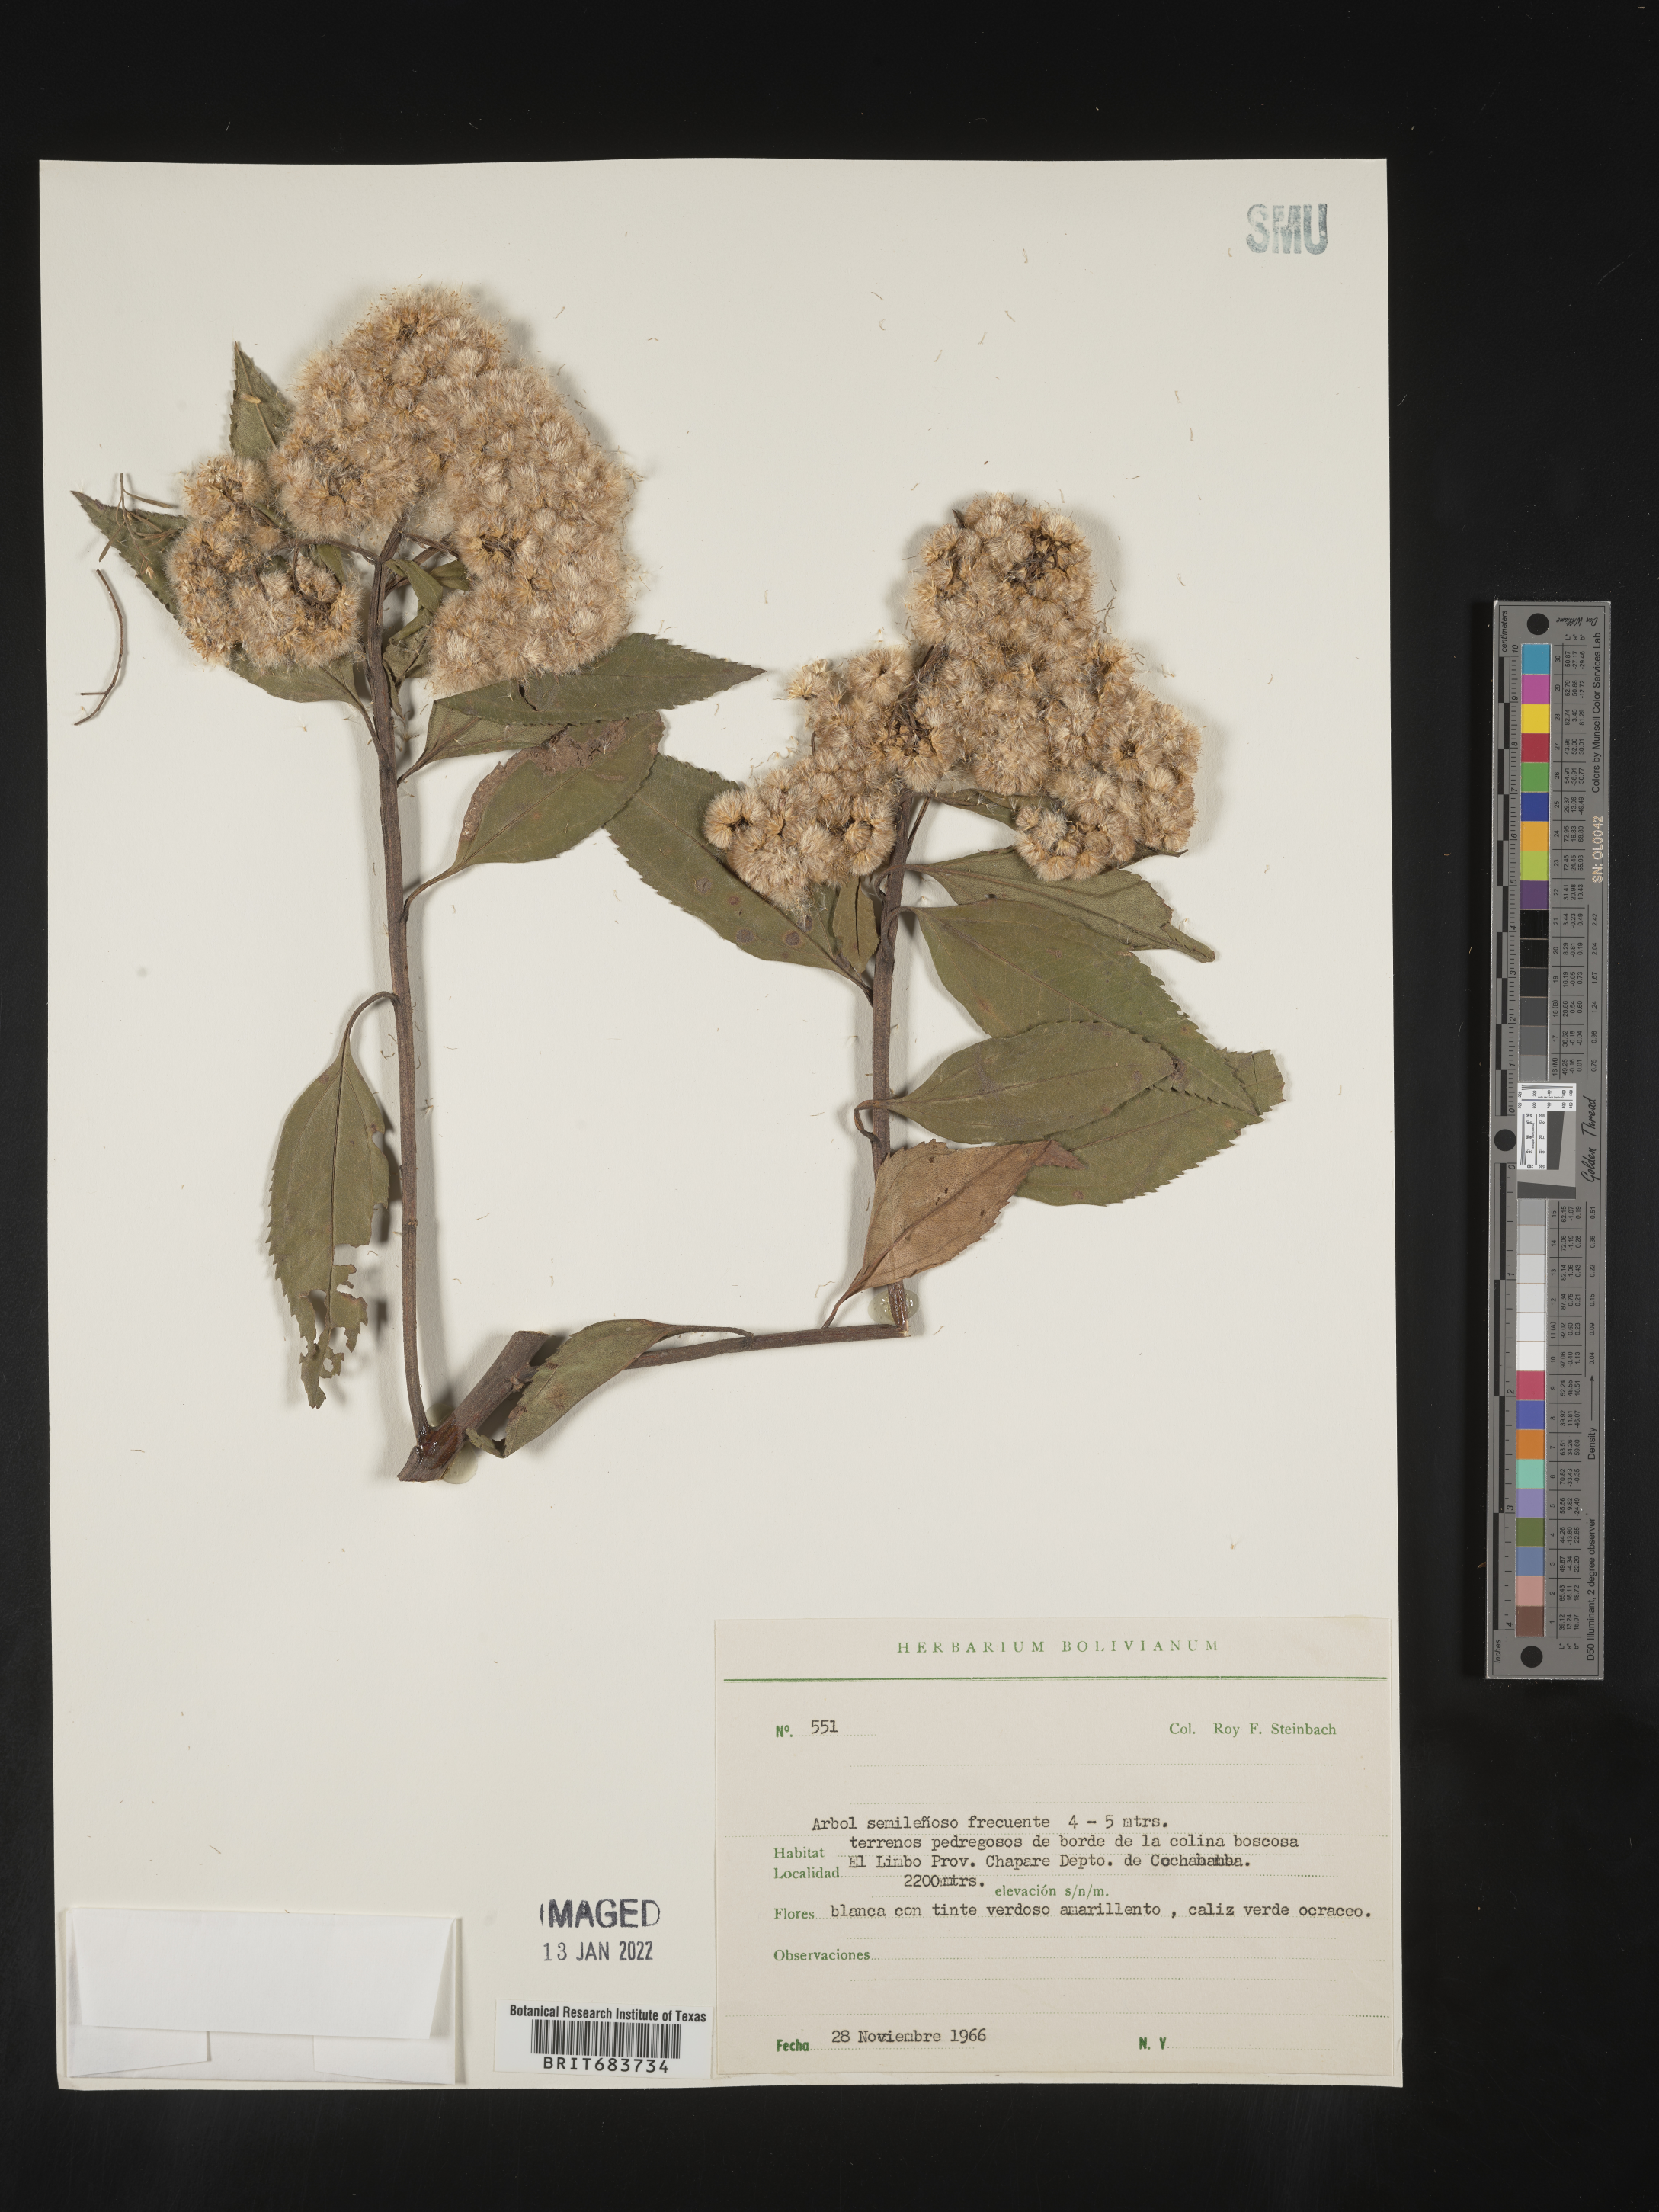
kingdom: Plantae
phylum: Tracheophyta
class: Magnoliopsida
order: Asterales
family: Asteraceae
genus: Baccharis
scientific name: Baccharis
